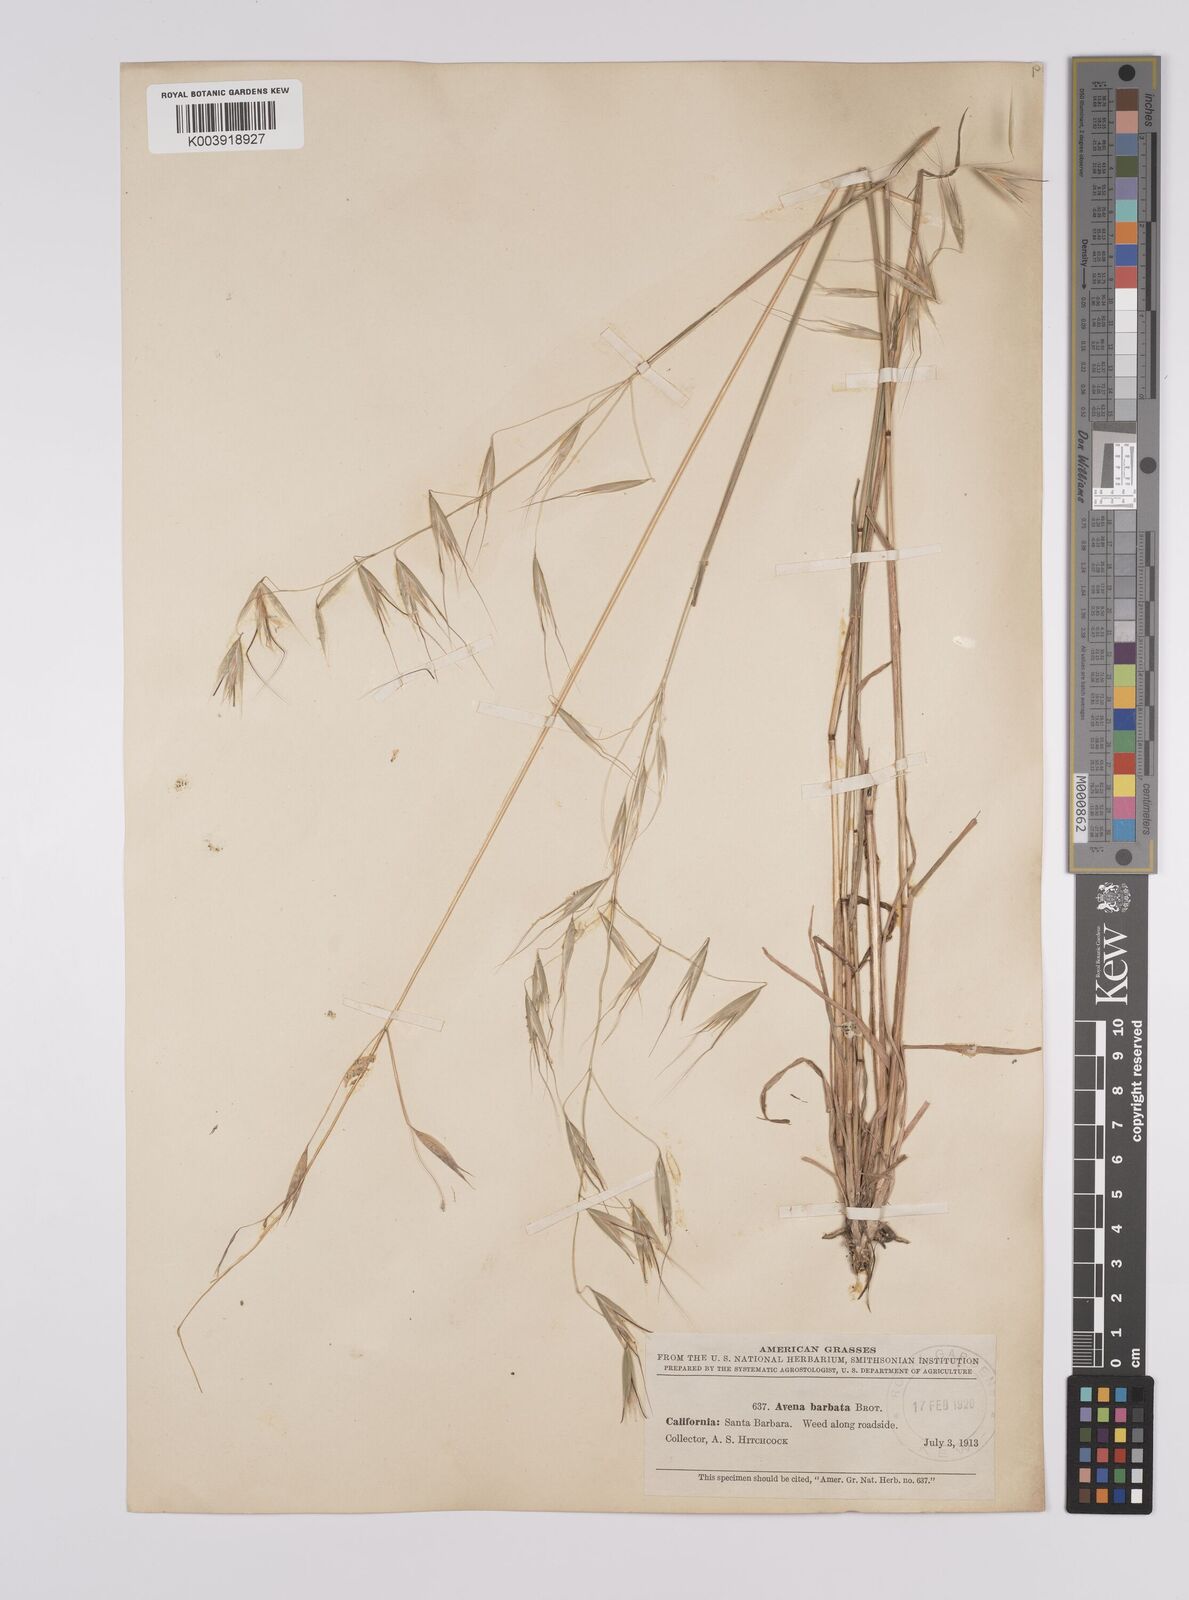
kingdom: Plantae
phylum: Tracheophyta
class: Liliopsida
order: Poales
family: Poaceae
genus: Avena
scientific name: Avena
